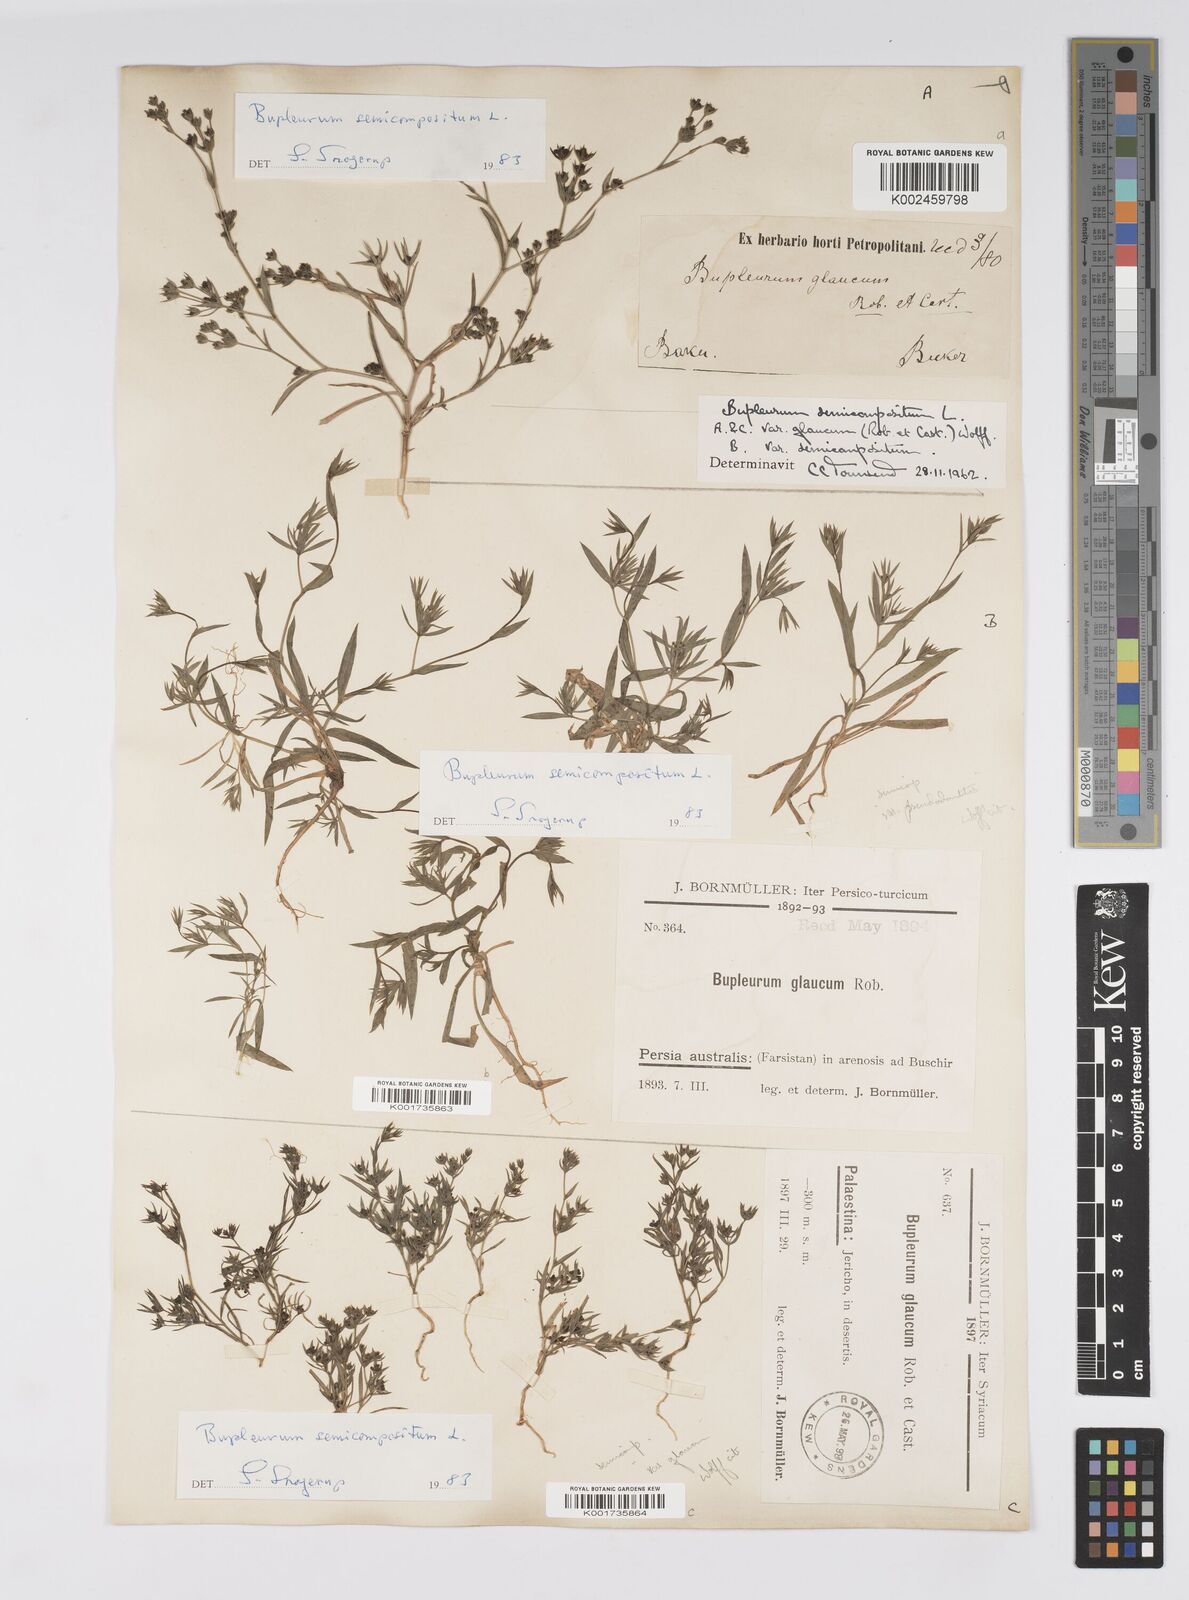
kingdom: Plantae
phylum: Tracheophyta
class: Magnoliopsida
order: Apiales
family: Apiaceae
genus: Bupleurum
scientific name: Bupleurum semicompositum
